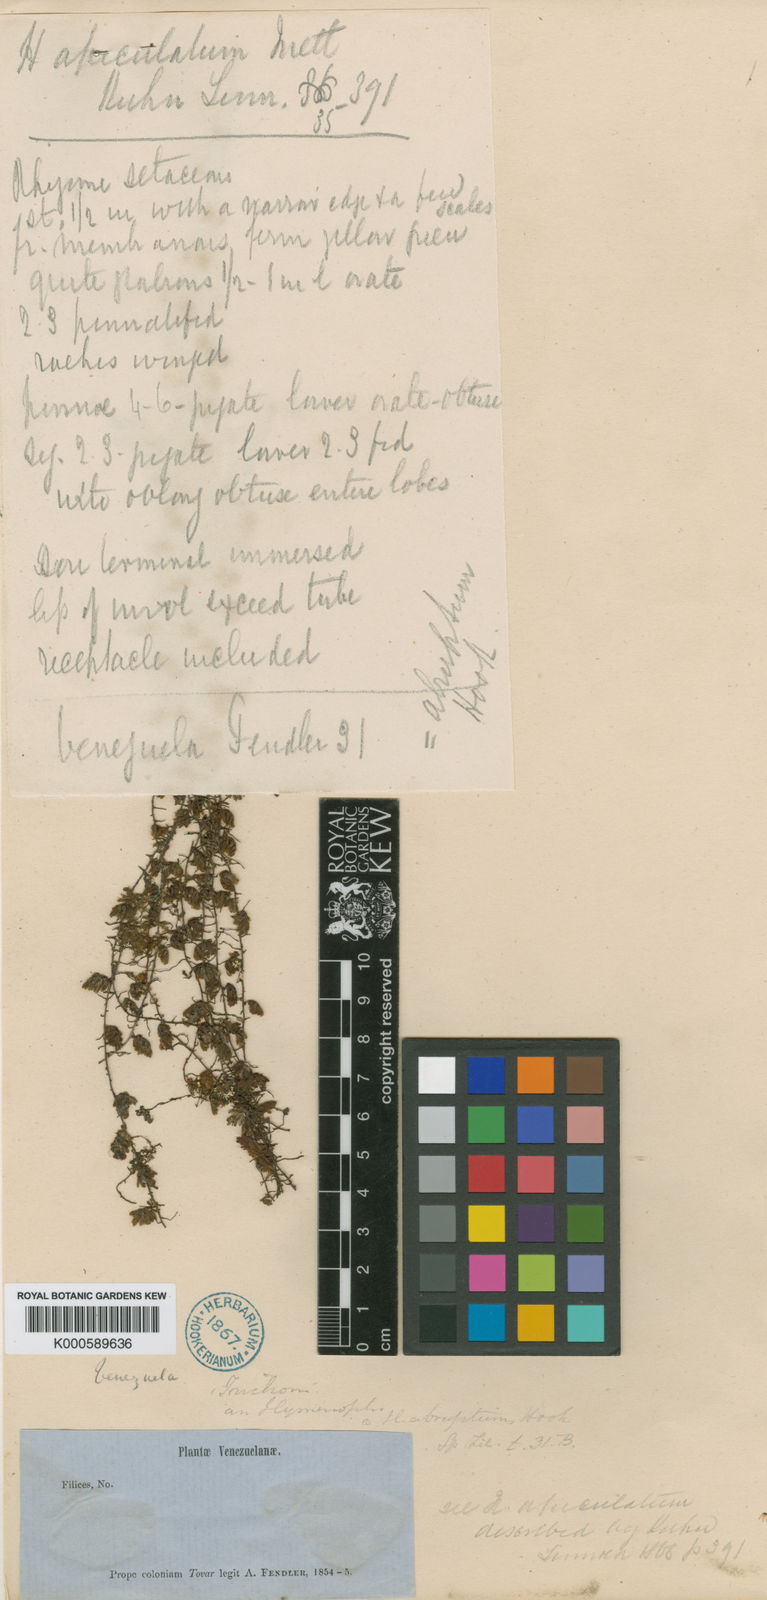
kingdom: Plantae
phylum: Tracheophyta
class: Polypodiopsida
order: Hymenophyllales
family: Hymenophyllaceae
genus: Hymenophyllum
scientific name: Hymenophyllum abruptum
